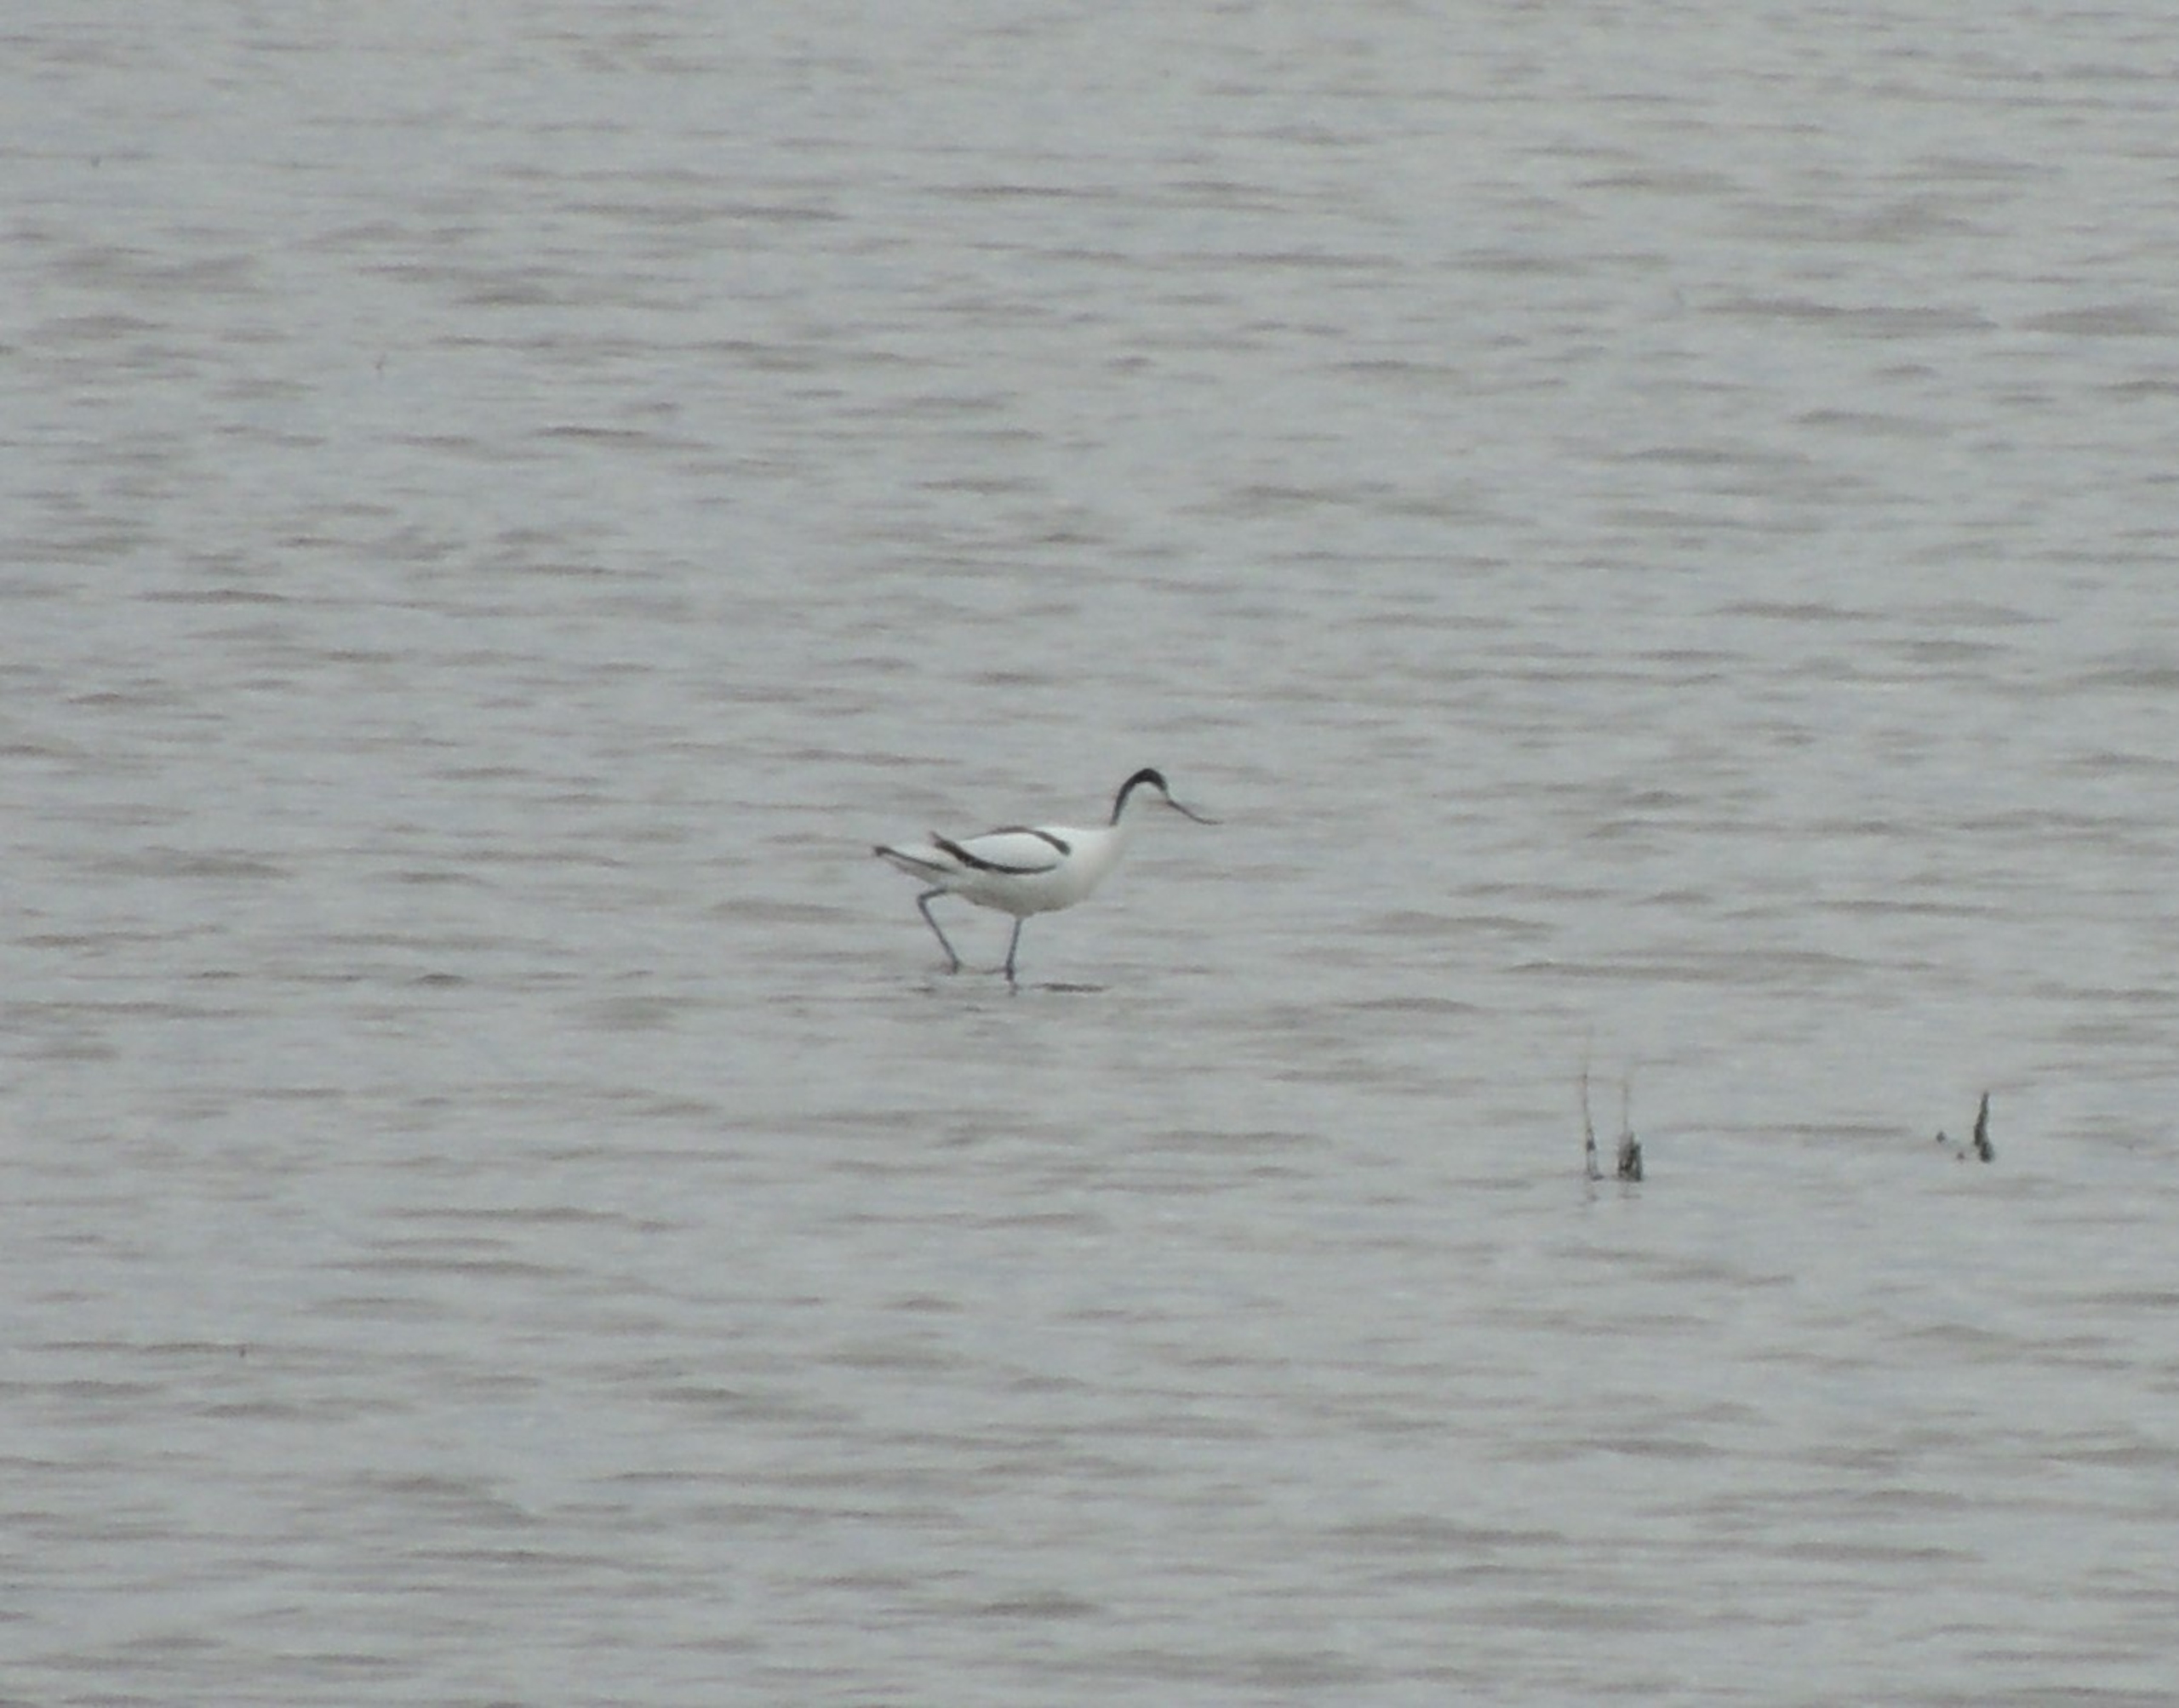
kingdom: Animalia
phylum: Chordata
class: Aves
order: Charadriiformes
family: Recurvirostridae
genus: Recurvirostra
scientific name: Recurvirostra avosetta
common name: Klyde
